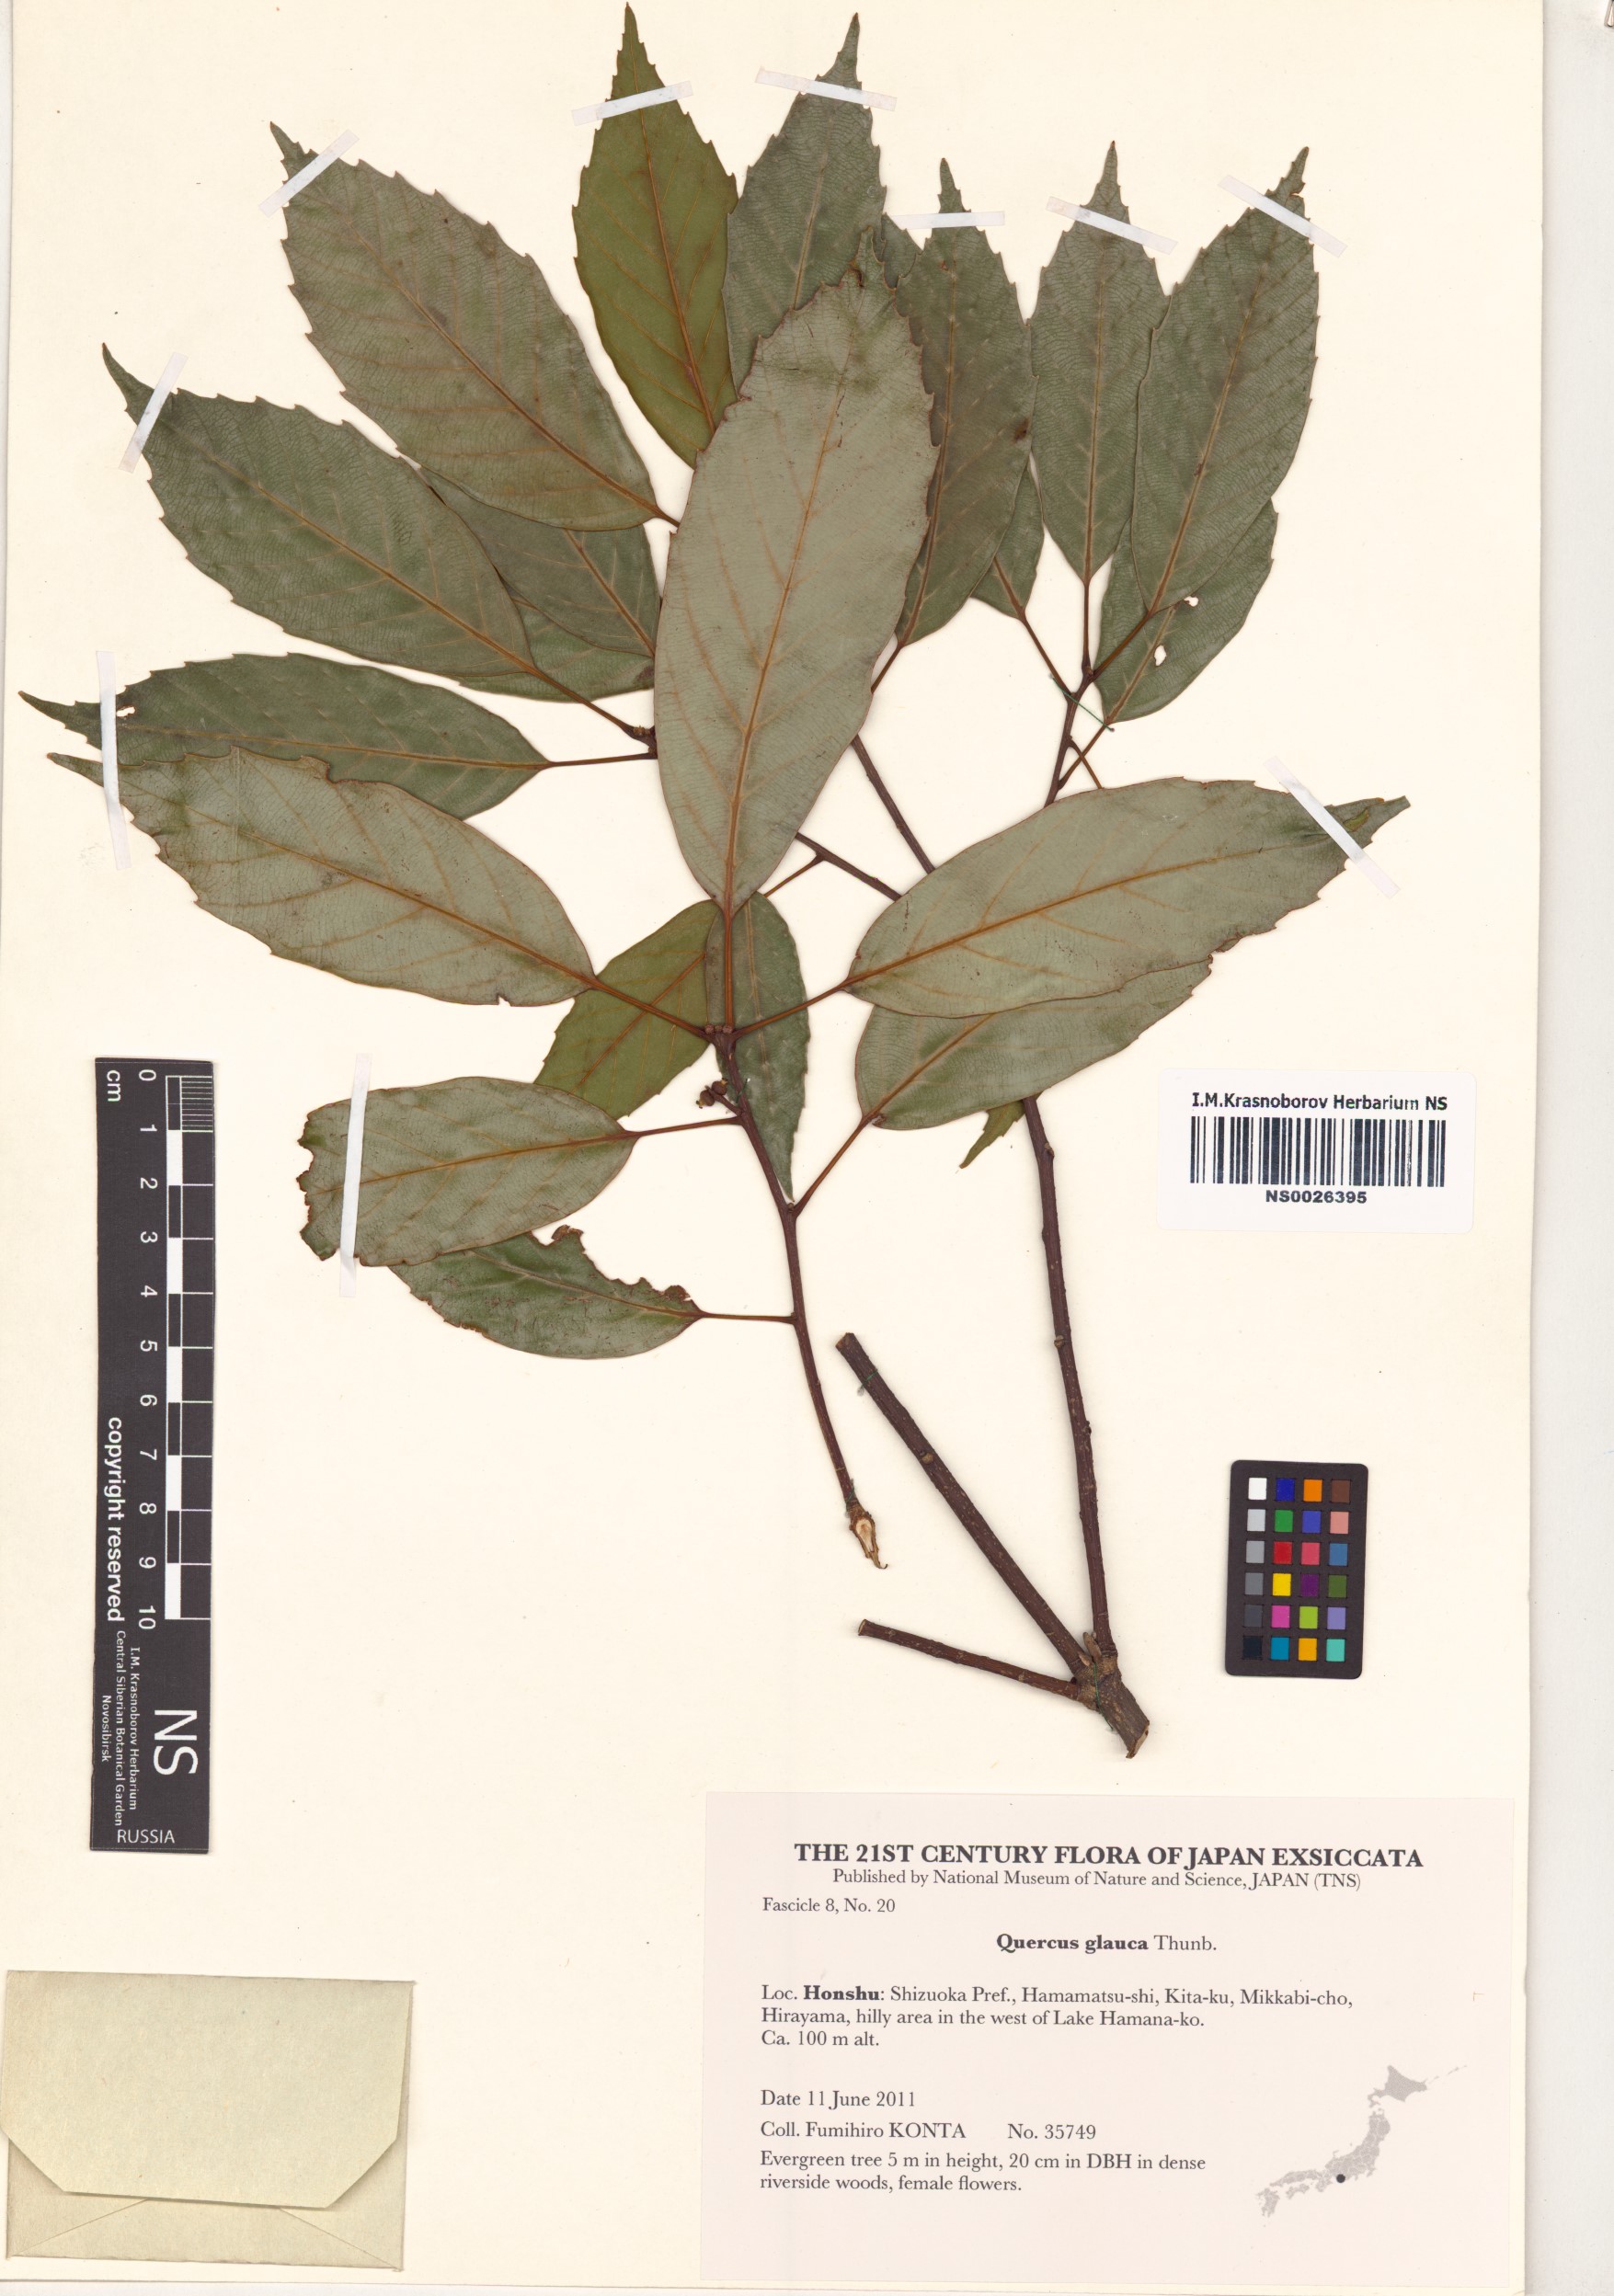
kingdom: Plantae
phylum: Tracheophyta
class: Magnoliopsida
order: Fagales
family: Fagaceae
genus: Quercus
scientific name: Quercus glauca
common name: Ring-cup oak
